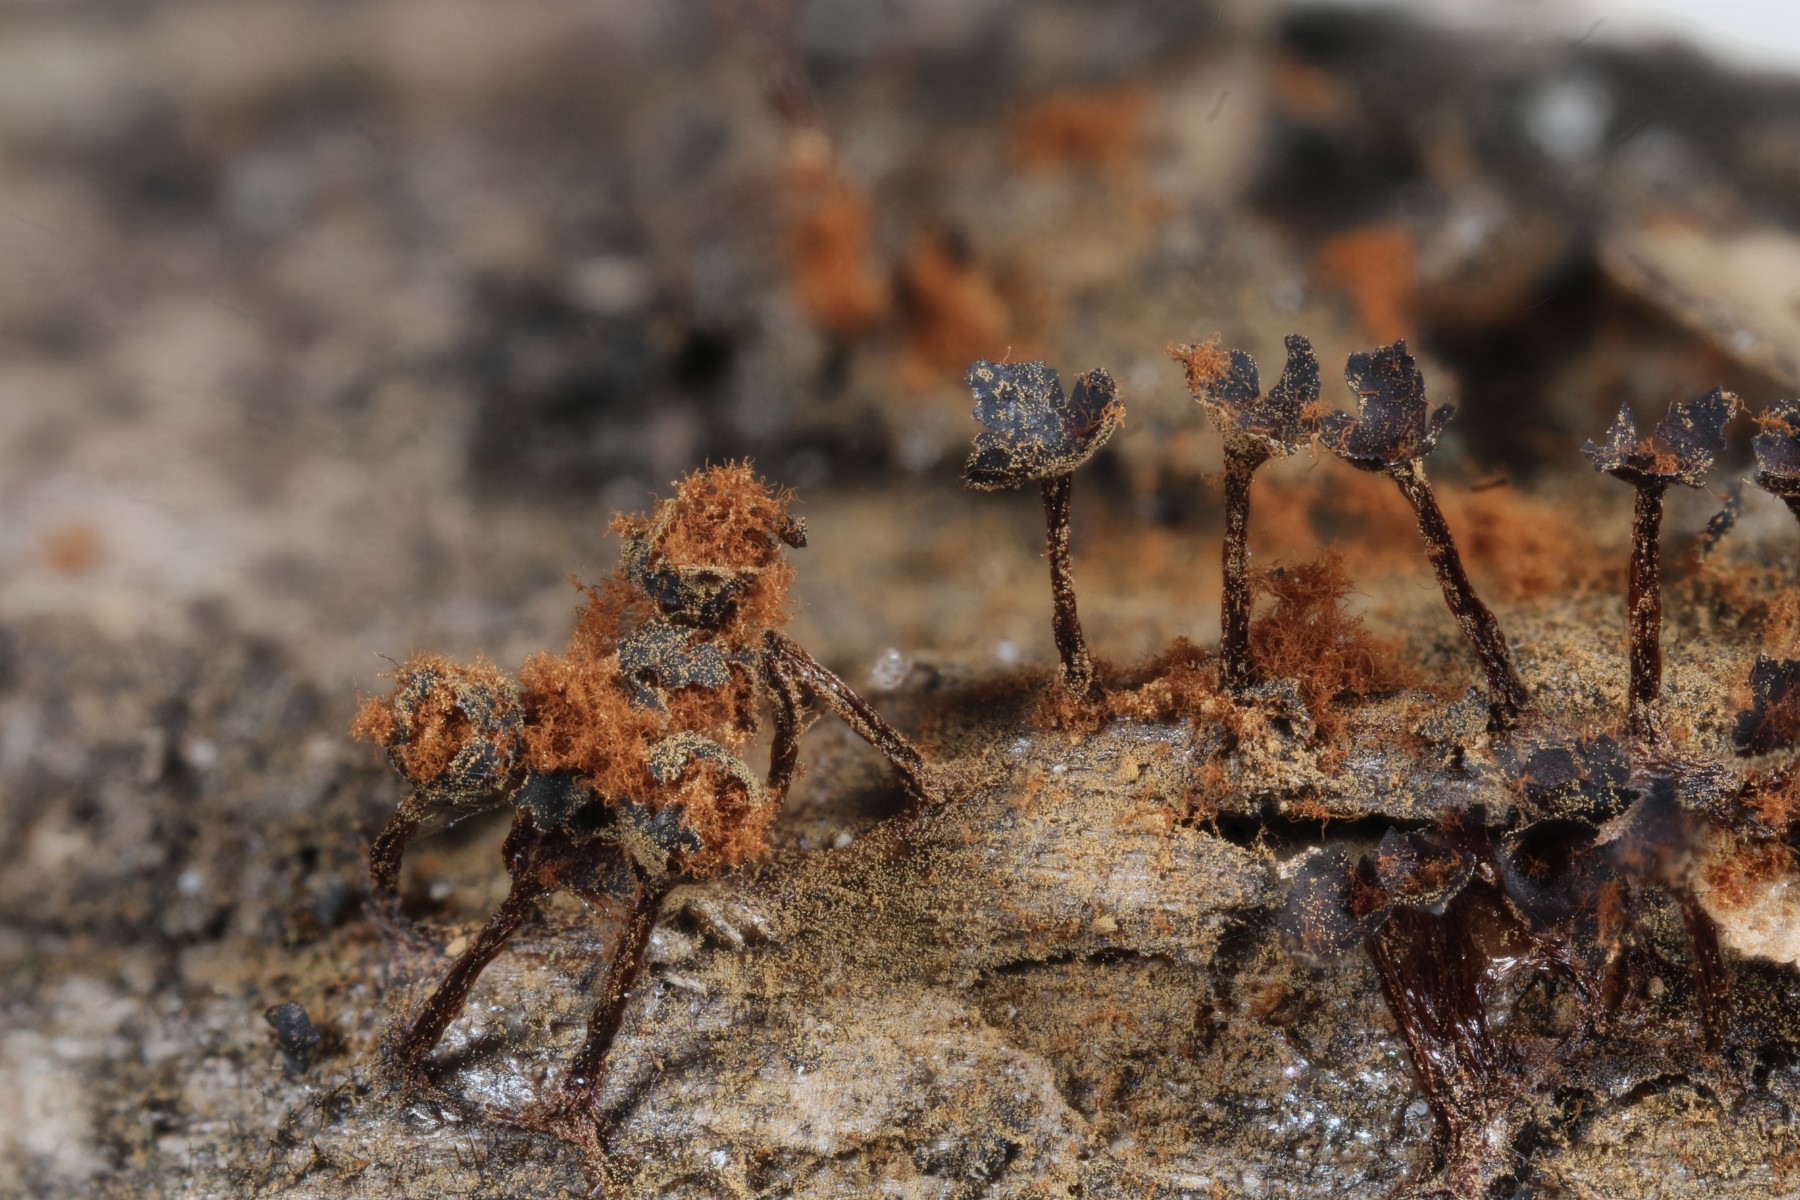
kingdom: Protozoa
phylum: Mycetozoa
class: Myxomycetes
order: Trichiales
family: Trichiaceae
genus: Metatrichia
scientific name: Metatrichia floriformis
